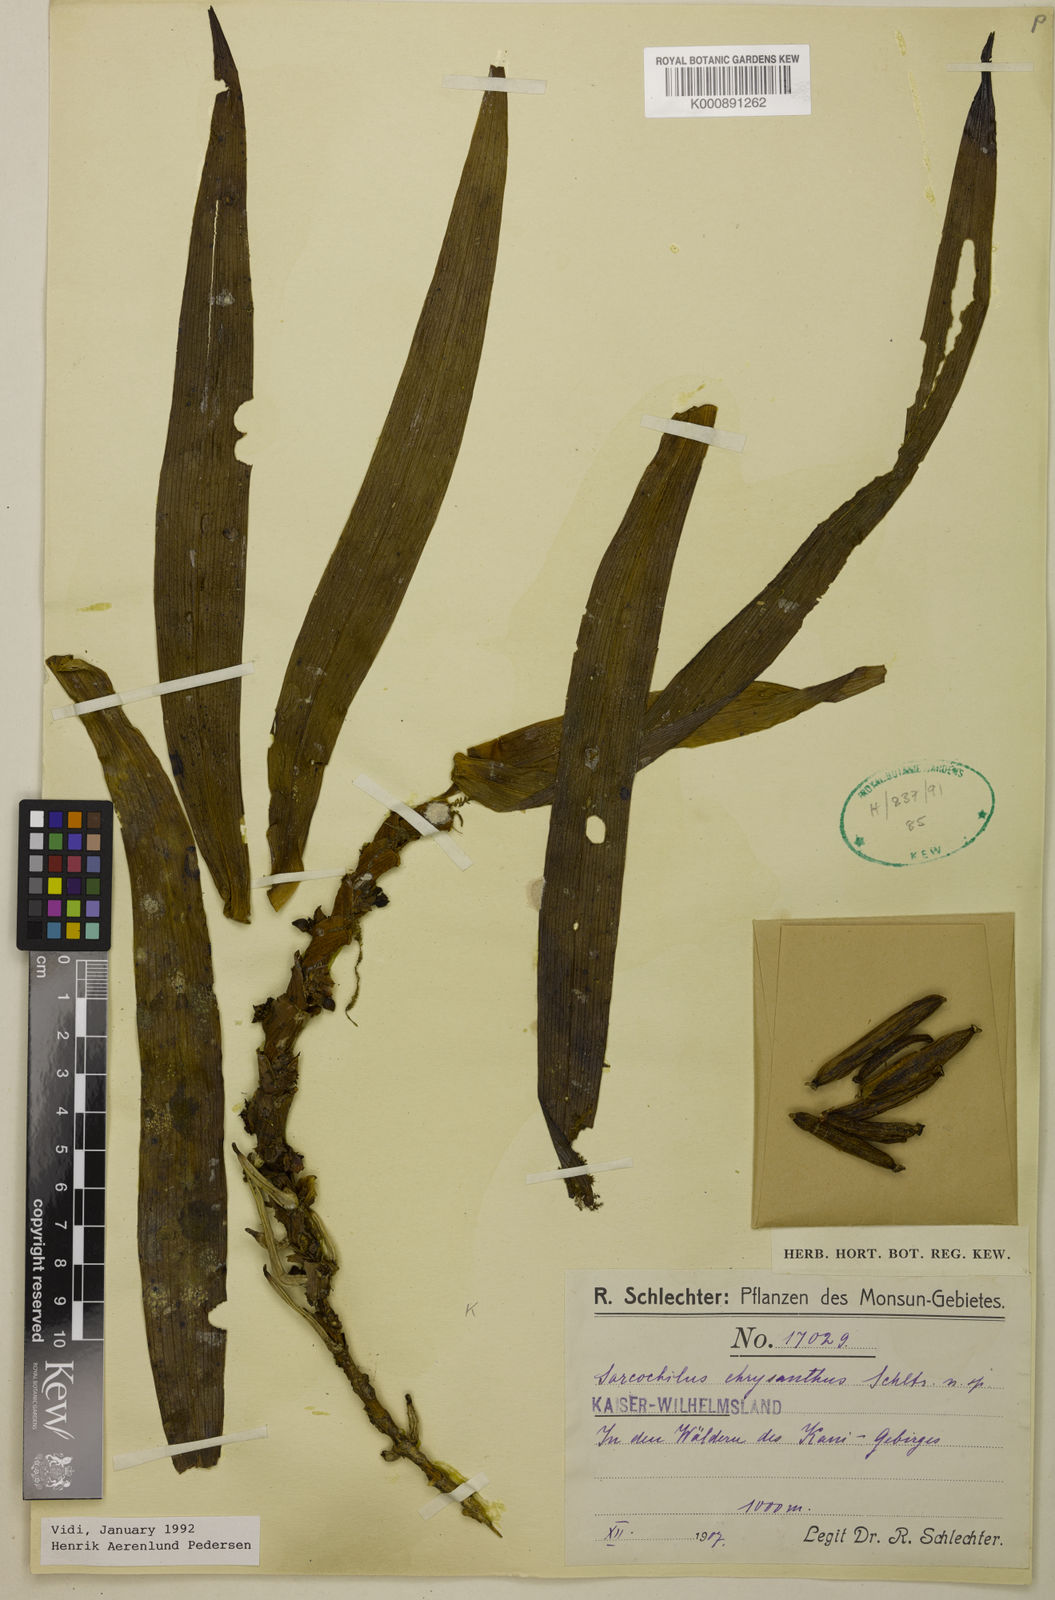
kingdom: Plantae
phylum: Tracheophyta
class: Liliopsida
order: Asparagales
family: Orchidaceae
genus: Sarcochilus
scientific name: Sarcochilus chrysanthus
